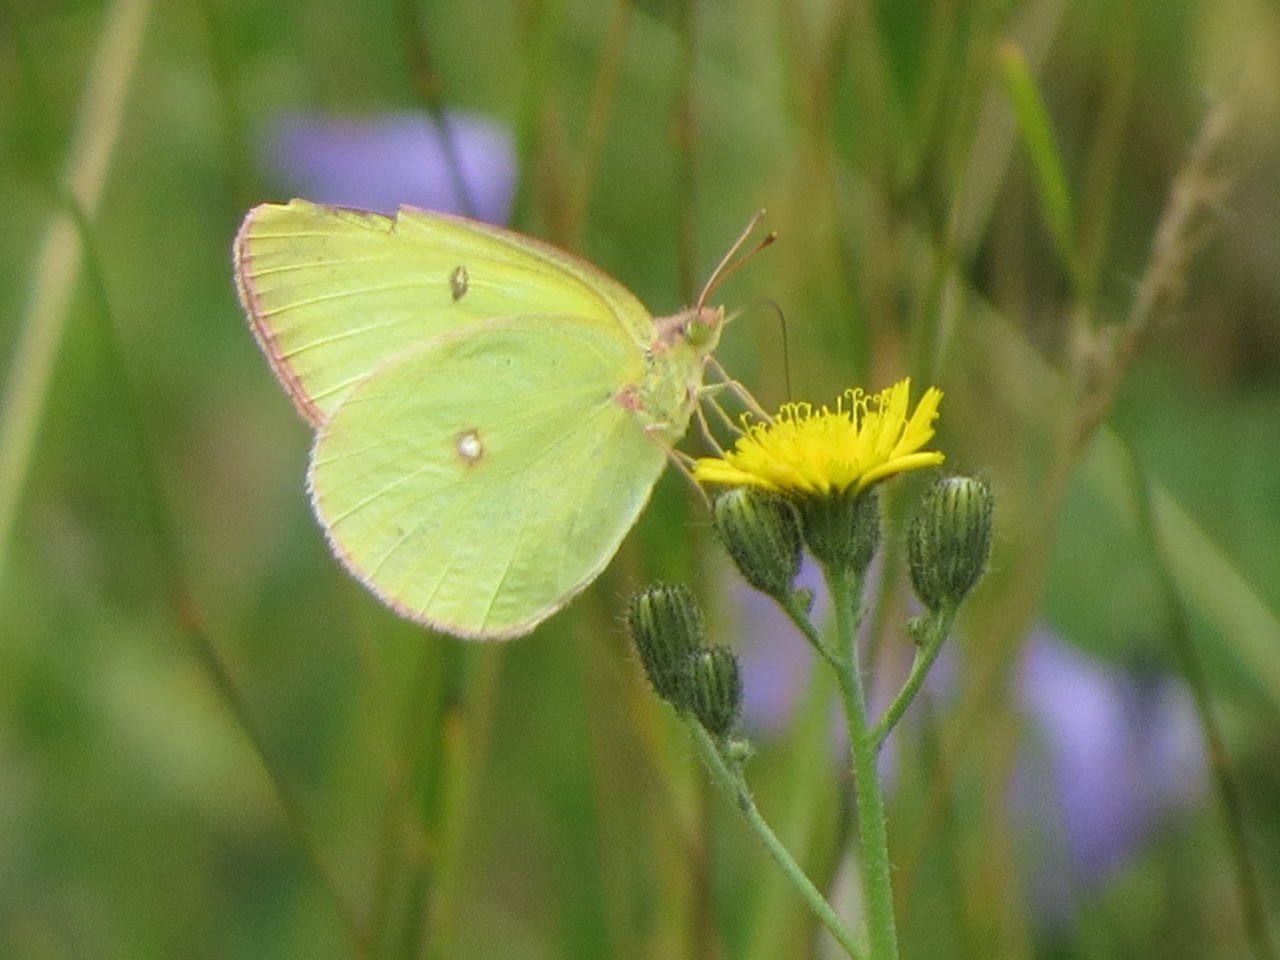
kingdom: Animalia
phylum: Arthropoda
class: Insecta
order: Lepidoptera
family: Pieridae
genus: Colias
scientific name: Colias interior
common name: Pink-edged Sulphur
